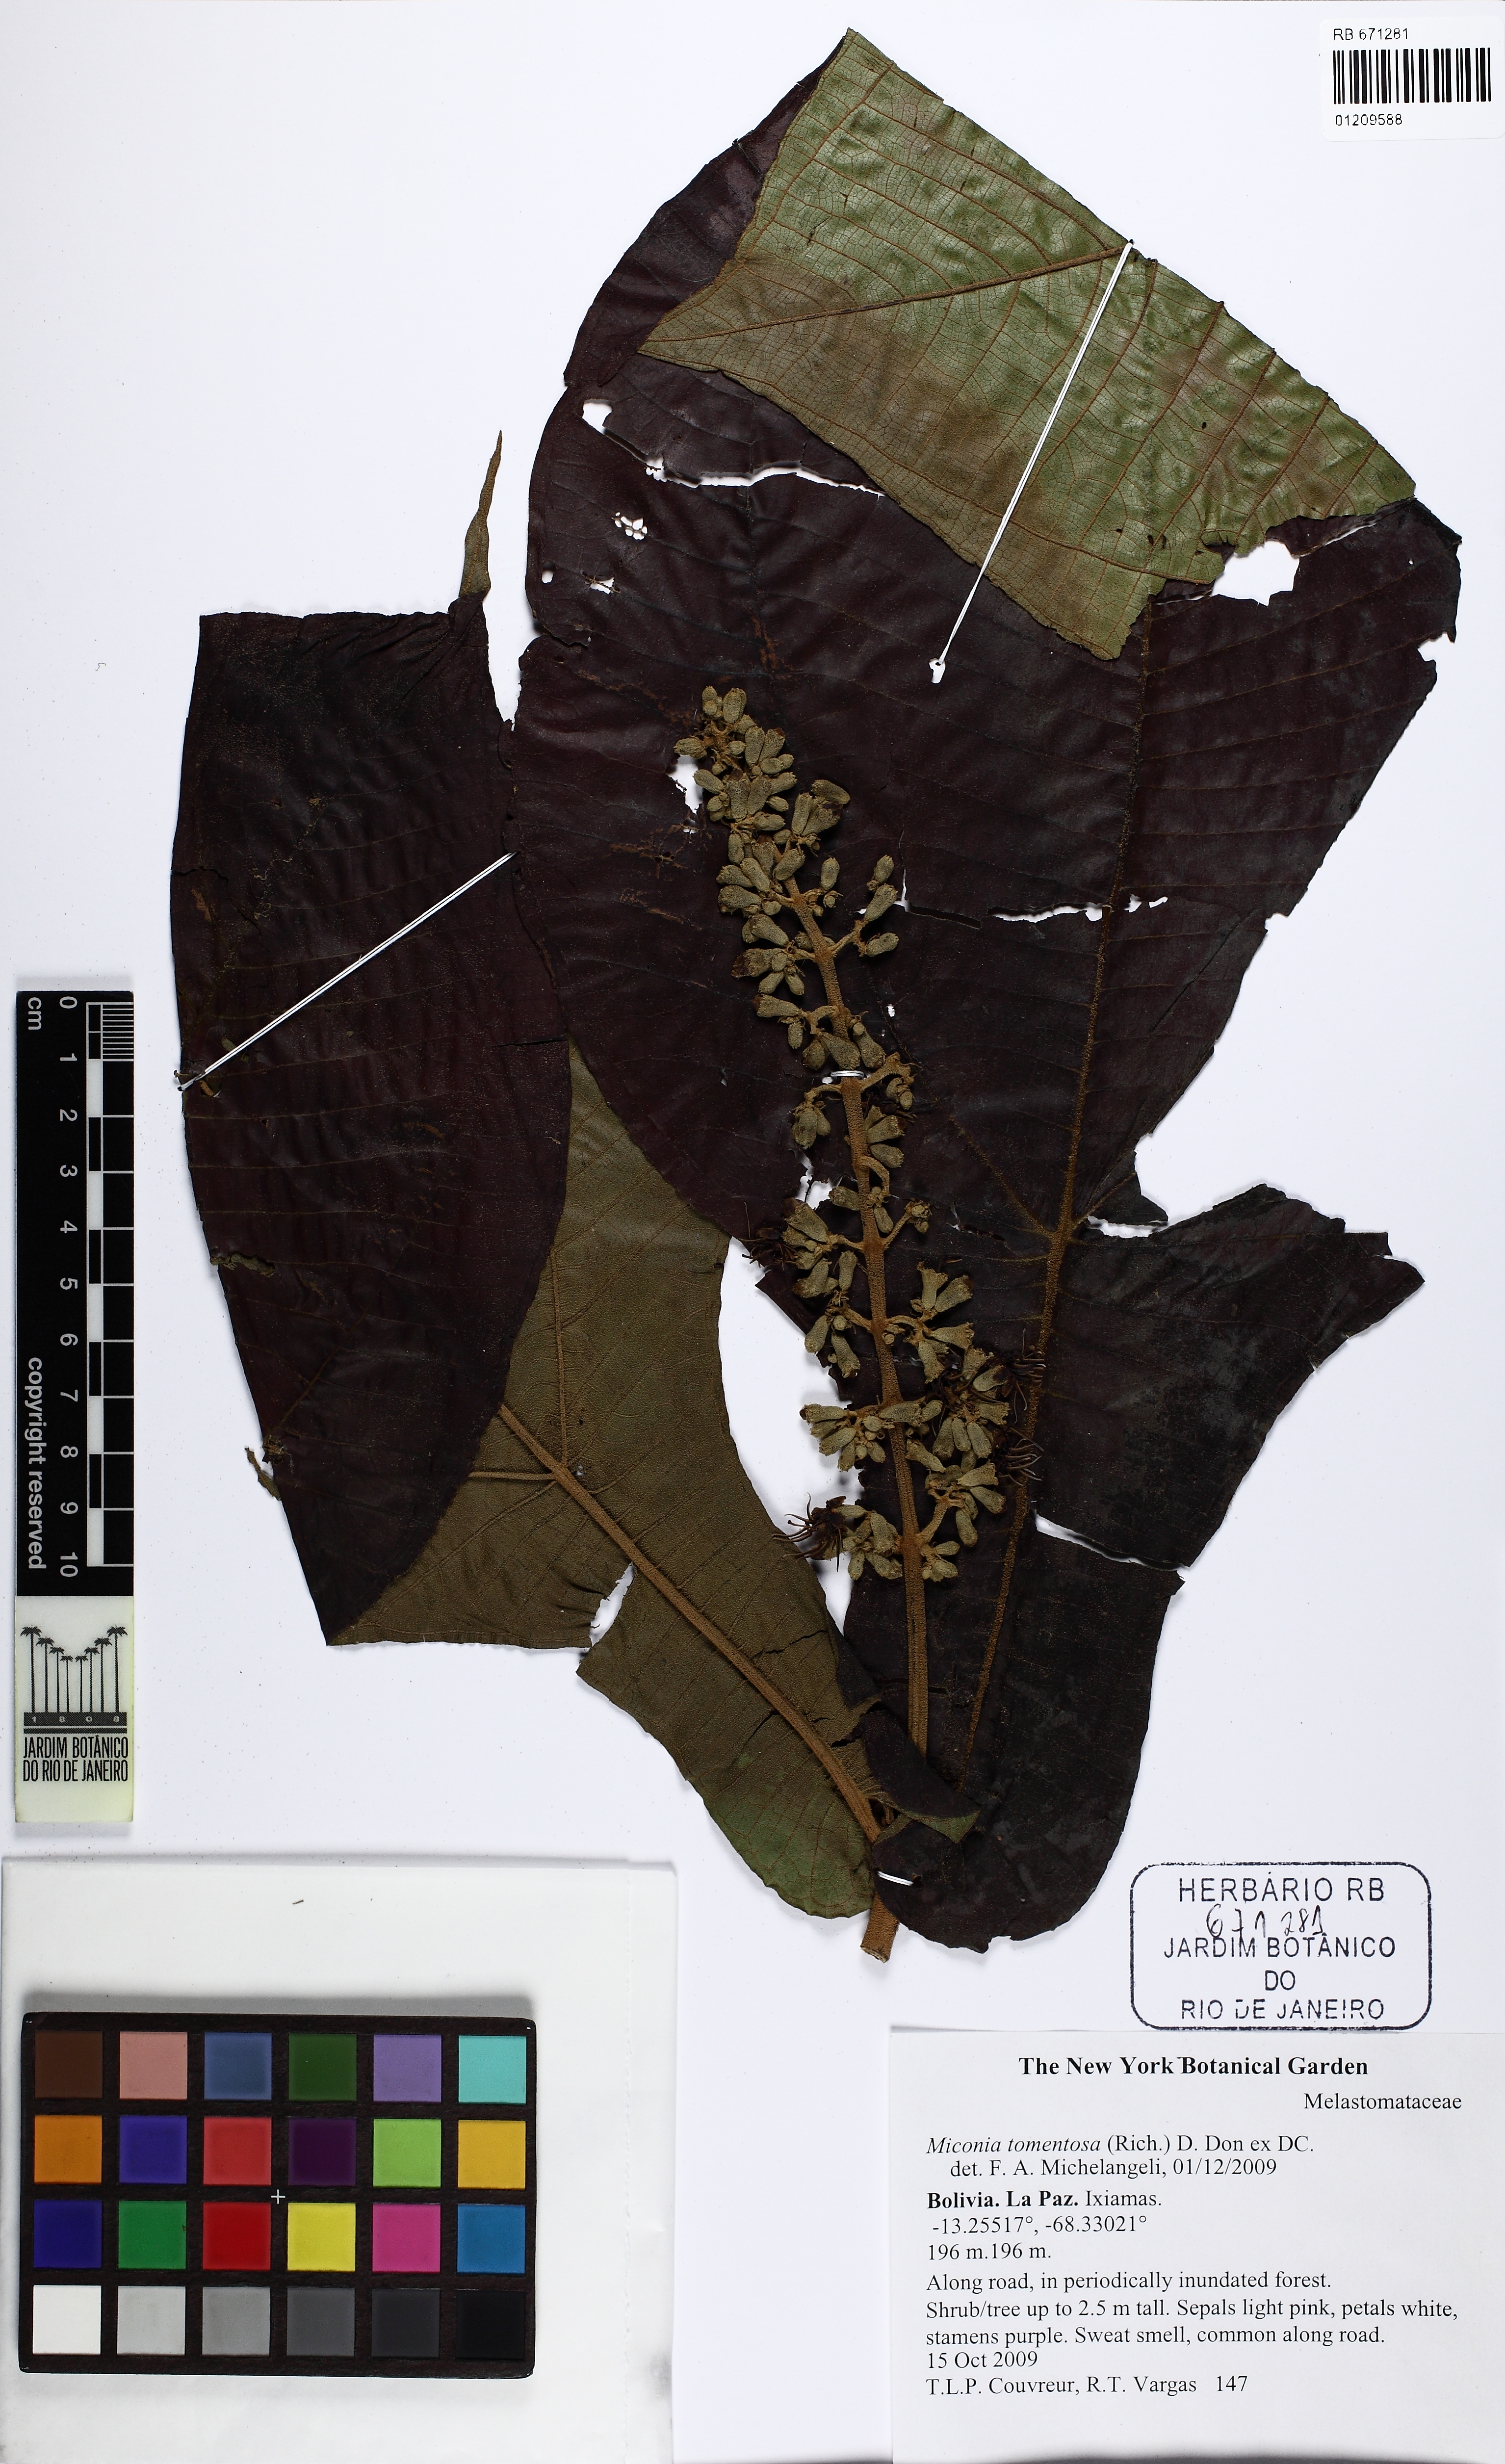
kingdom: Plantae
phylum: Tracheophyta
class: Magnoliopsida
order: Myrtales
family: Melastomataceae
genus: Miconia
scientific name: Miconia tomentosa
